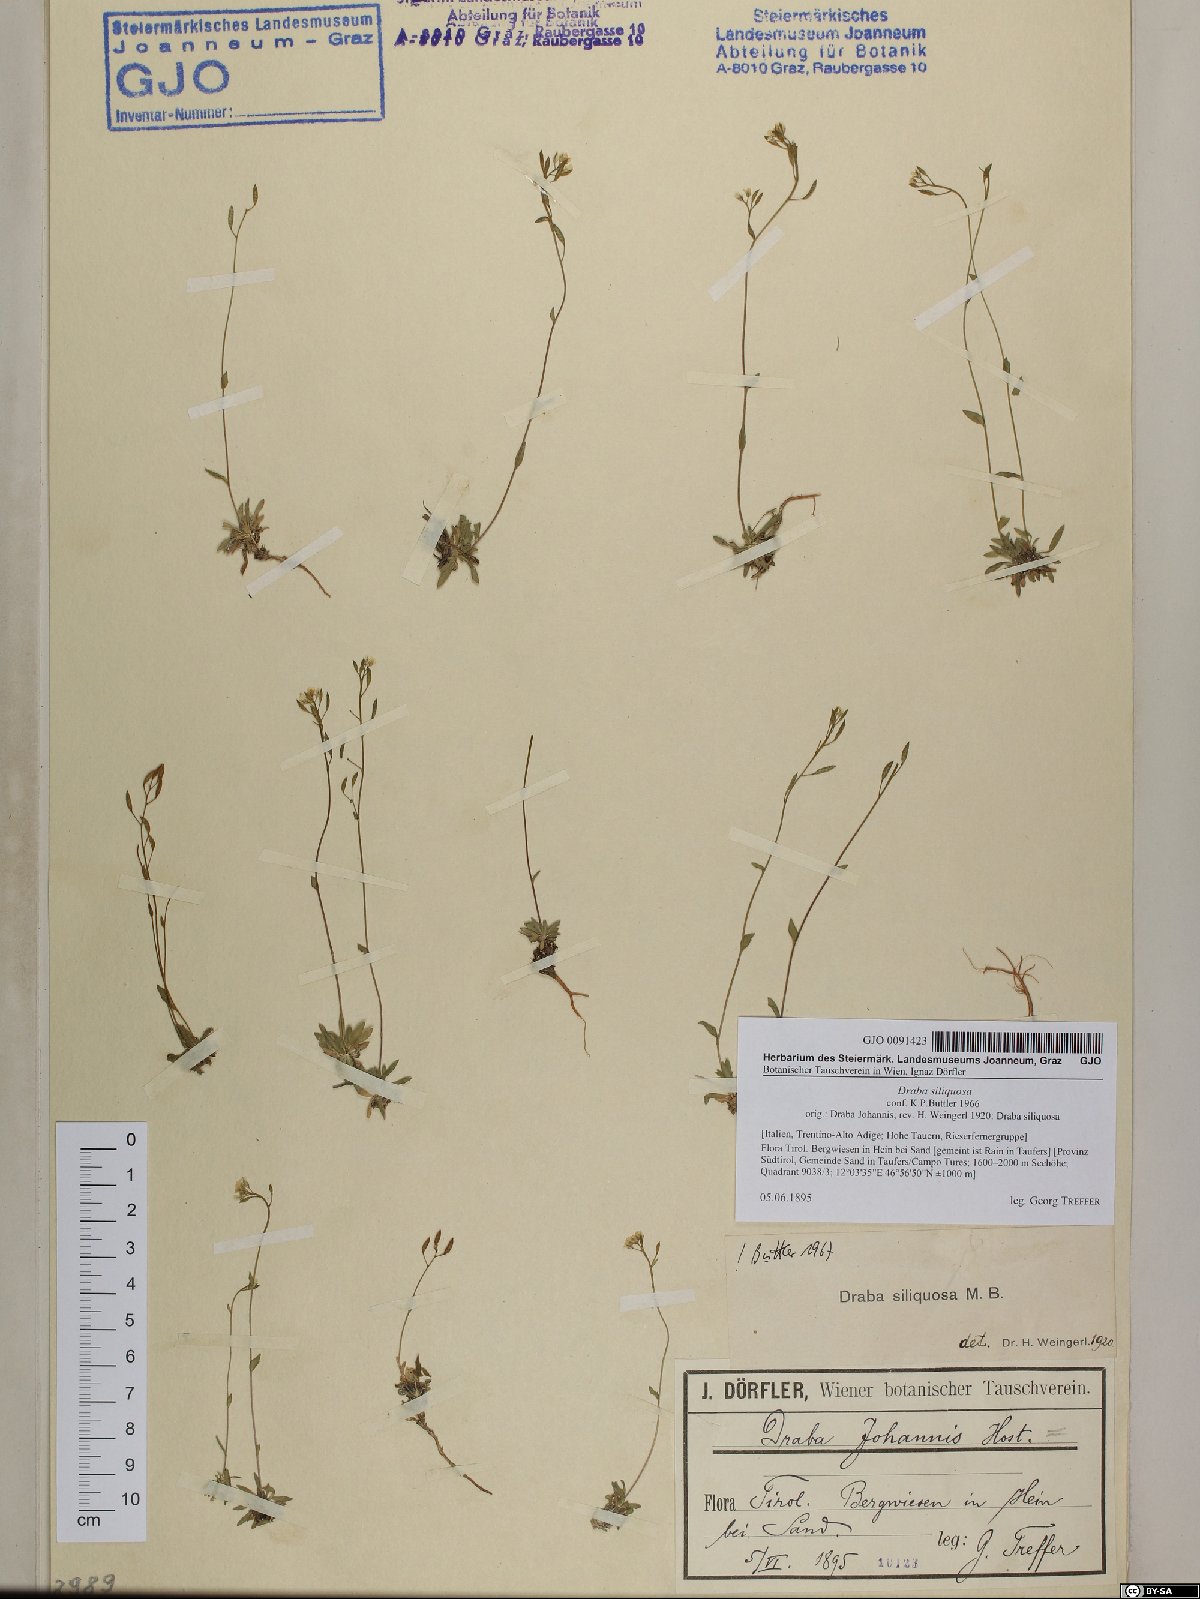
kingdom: Plantae
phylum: Tracheophyta
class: Magnoliopsida
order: Brassicales
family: Brassicaceae
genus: Draba
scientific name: Draba siliquosa
